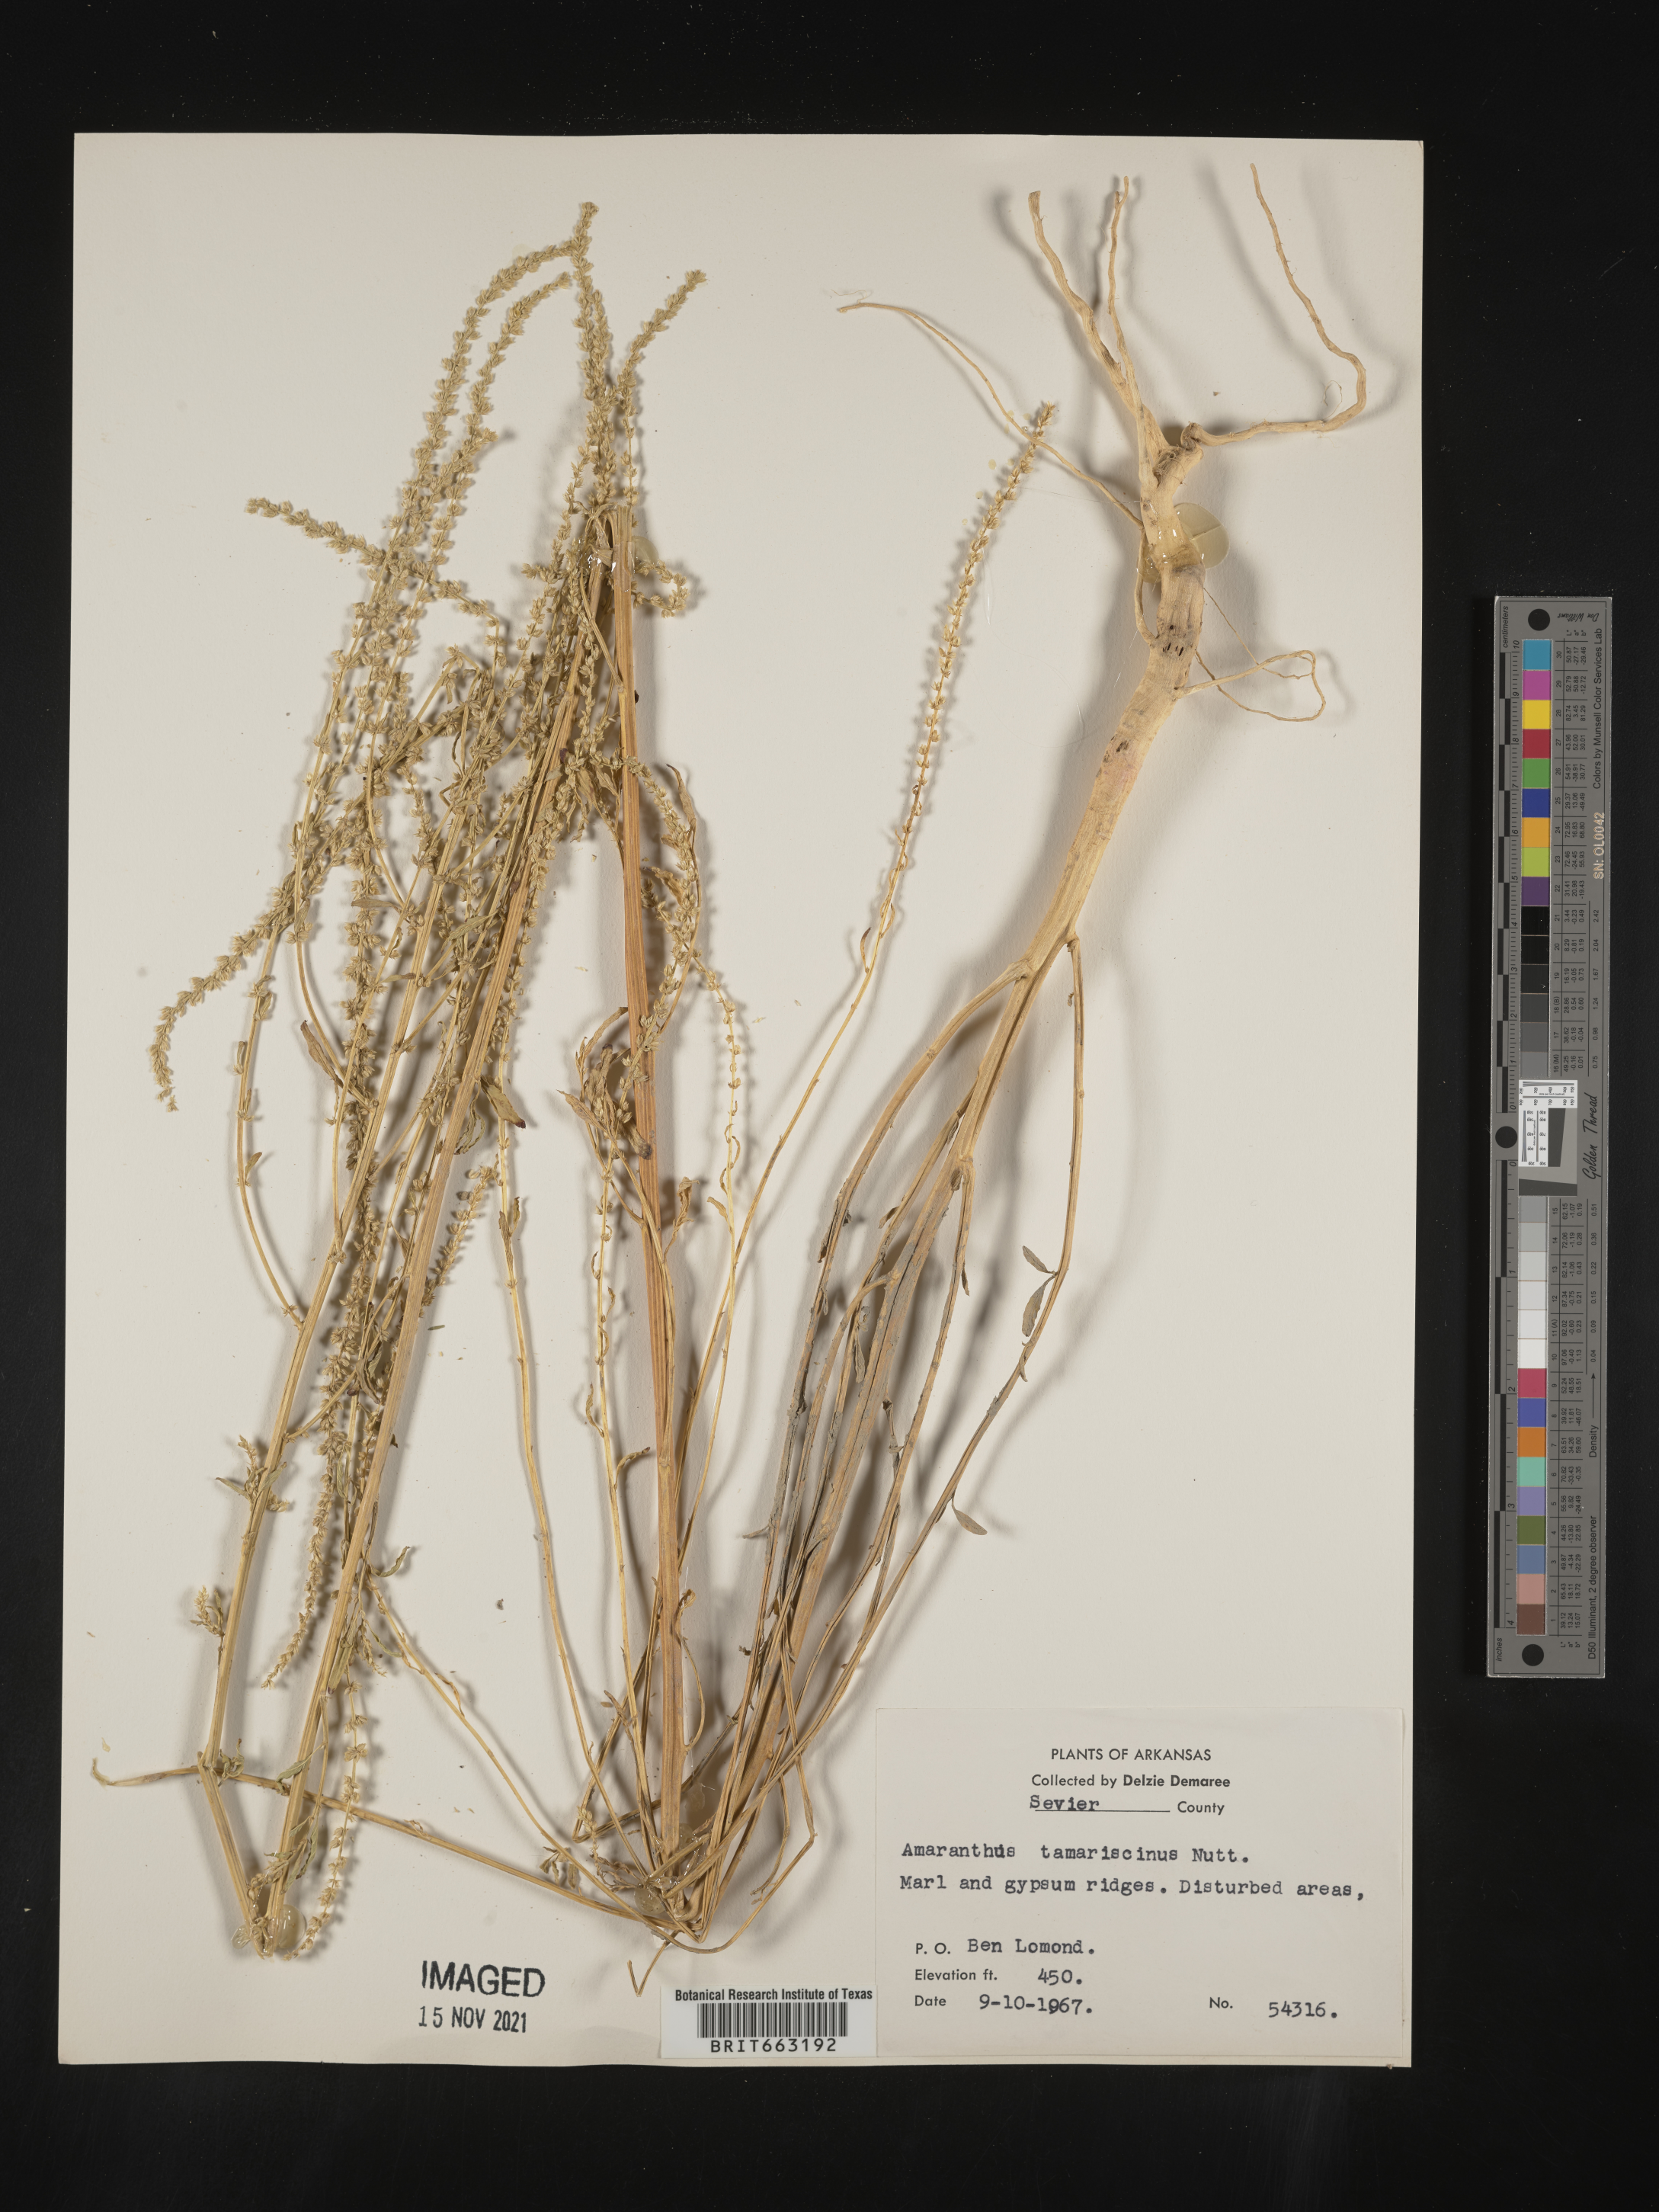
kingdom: Plantae
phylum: Tracheophyta
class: Magnoliopsida
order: Caryophyllales
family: Amaranthaceae
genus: Amaranthus
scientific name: Amaranthus tamariscinus
